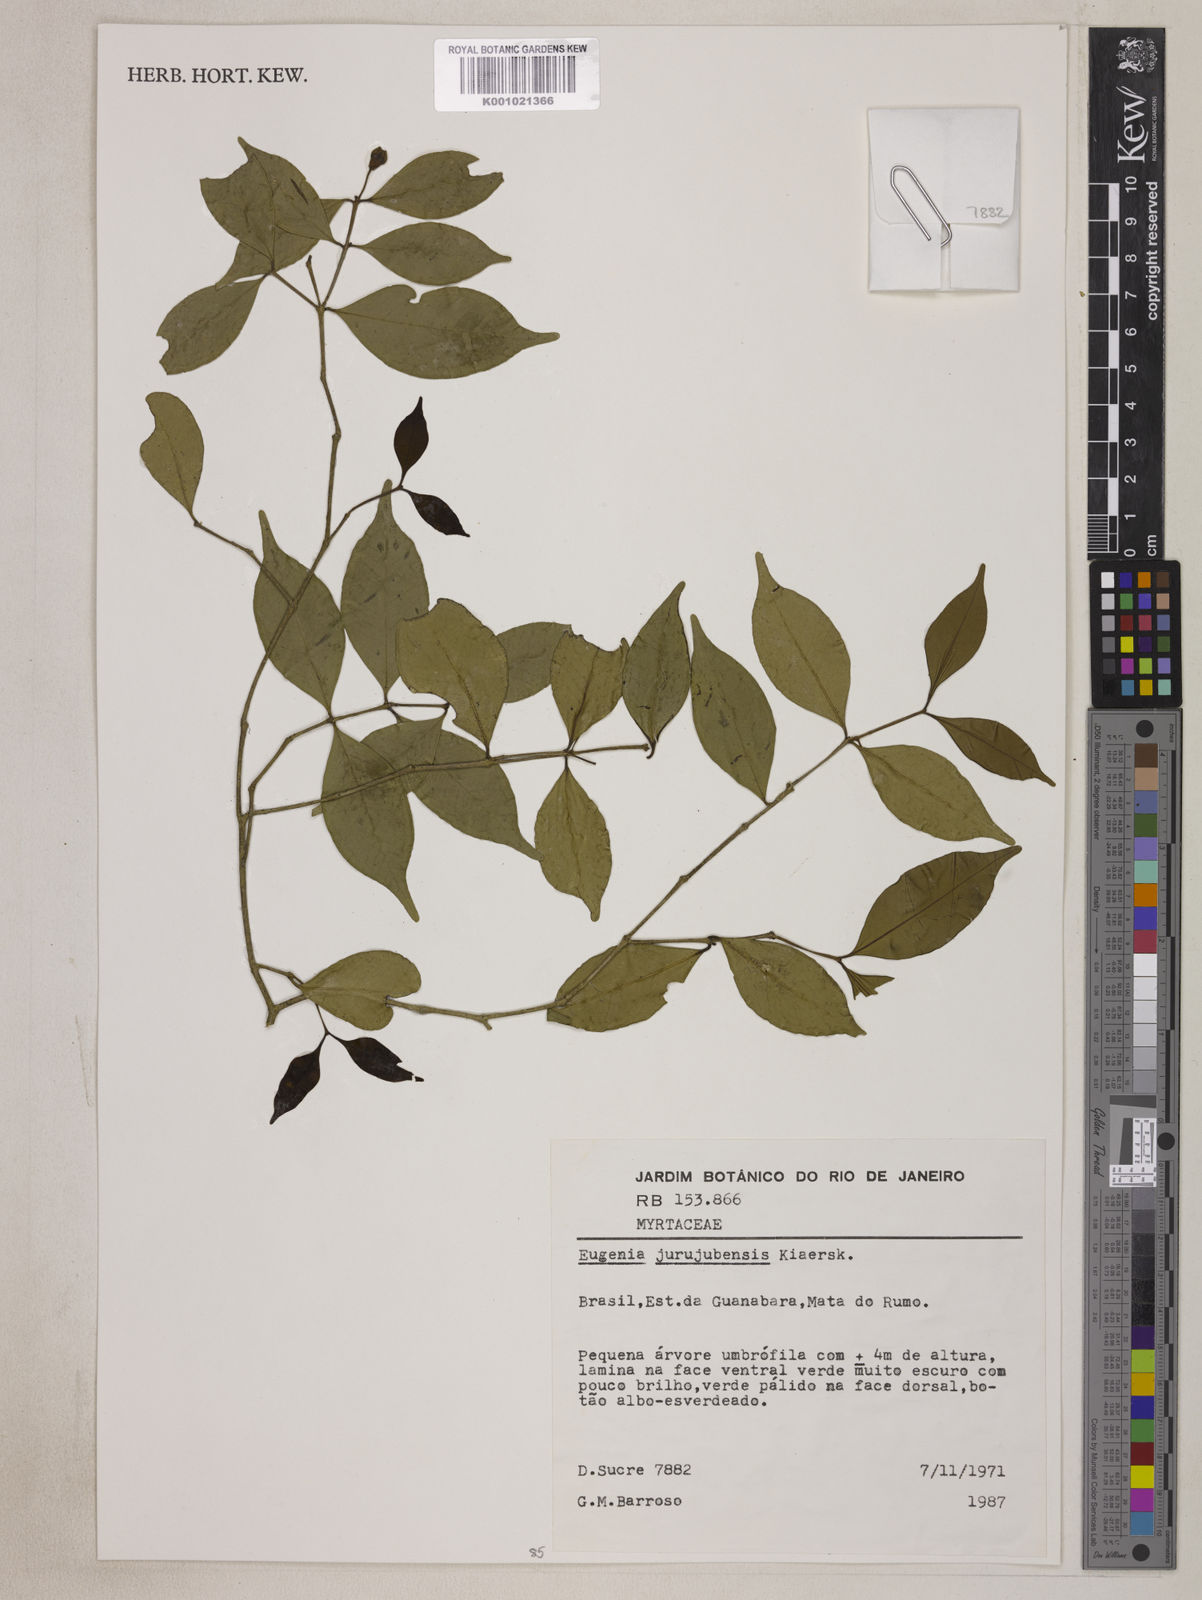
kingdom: Plantae
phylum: Tracheophyta
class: Magnoliopsida
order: Myrtales
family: Myrtaceae
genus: Eugenia
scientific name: Eugenia prasina
